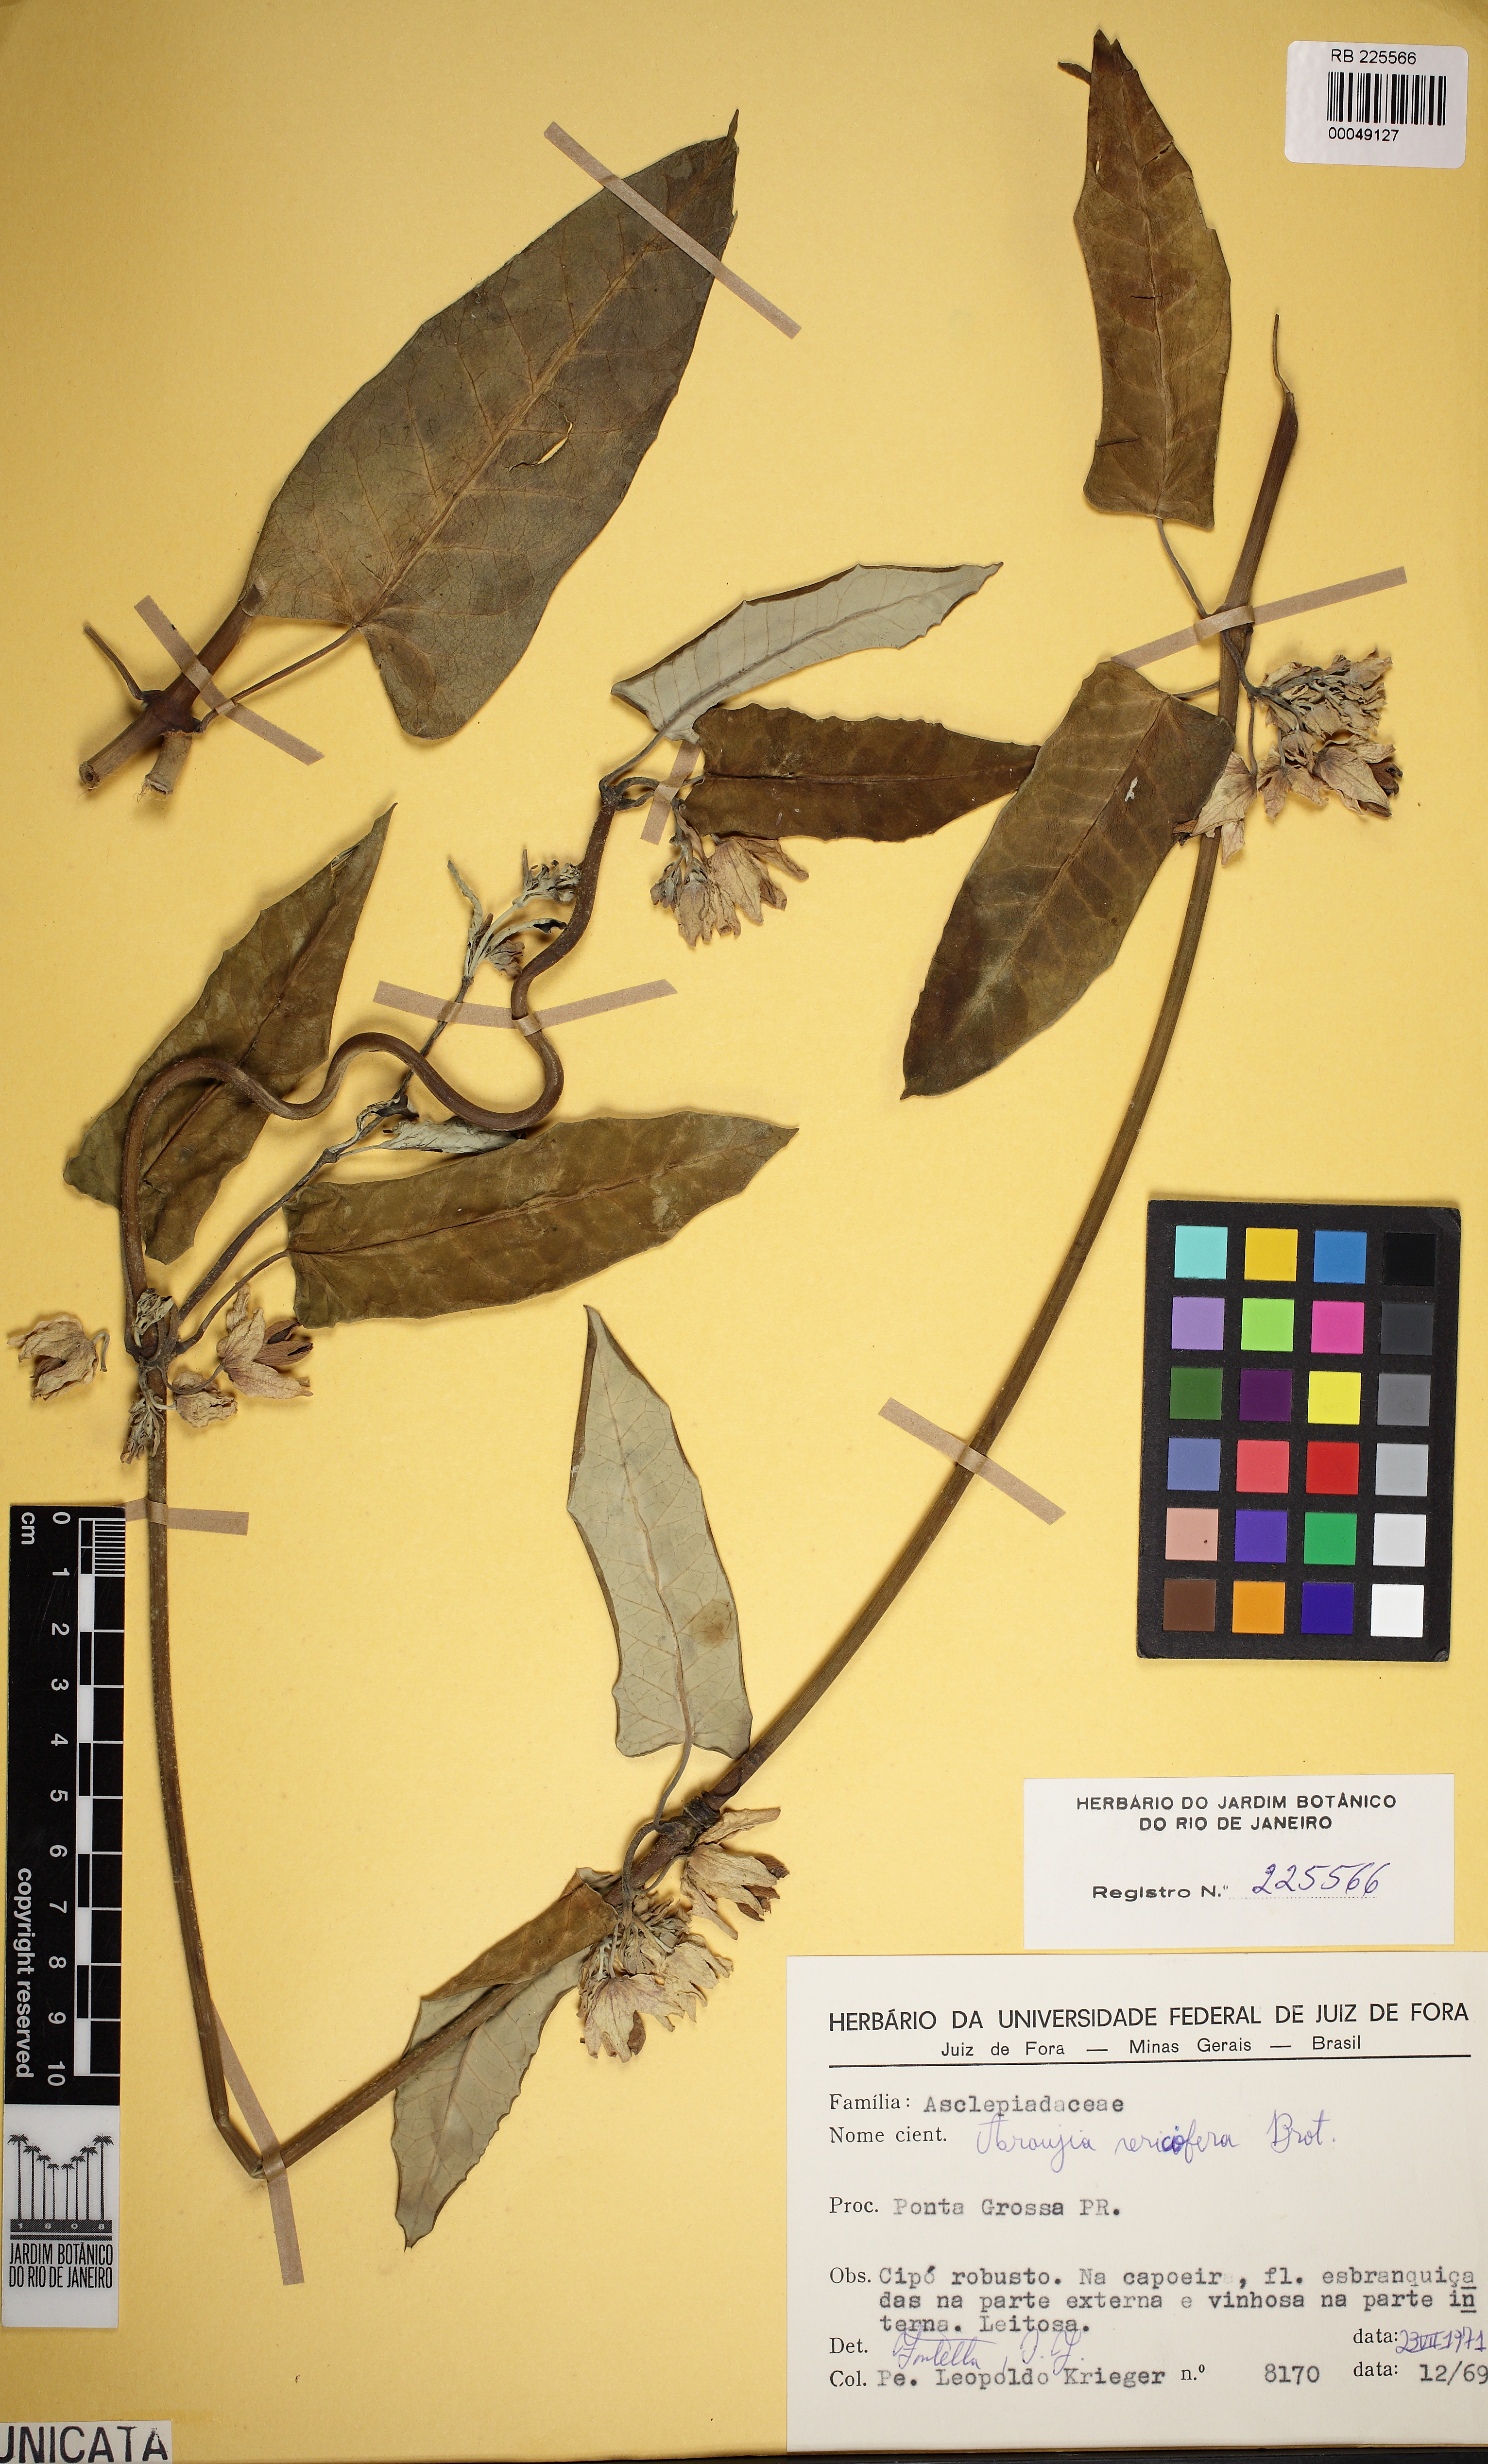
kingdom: Plantae
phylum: Tracheophyta
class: Magnoliopsida
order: Gentianales
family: Apocynaceae
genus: Araujia
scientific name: Araujia sericifera
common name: White bladderflower
